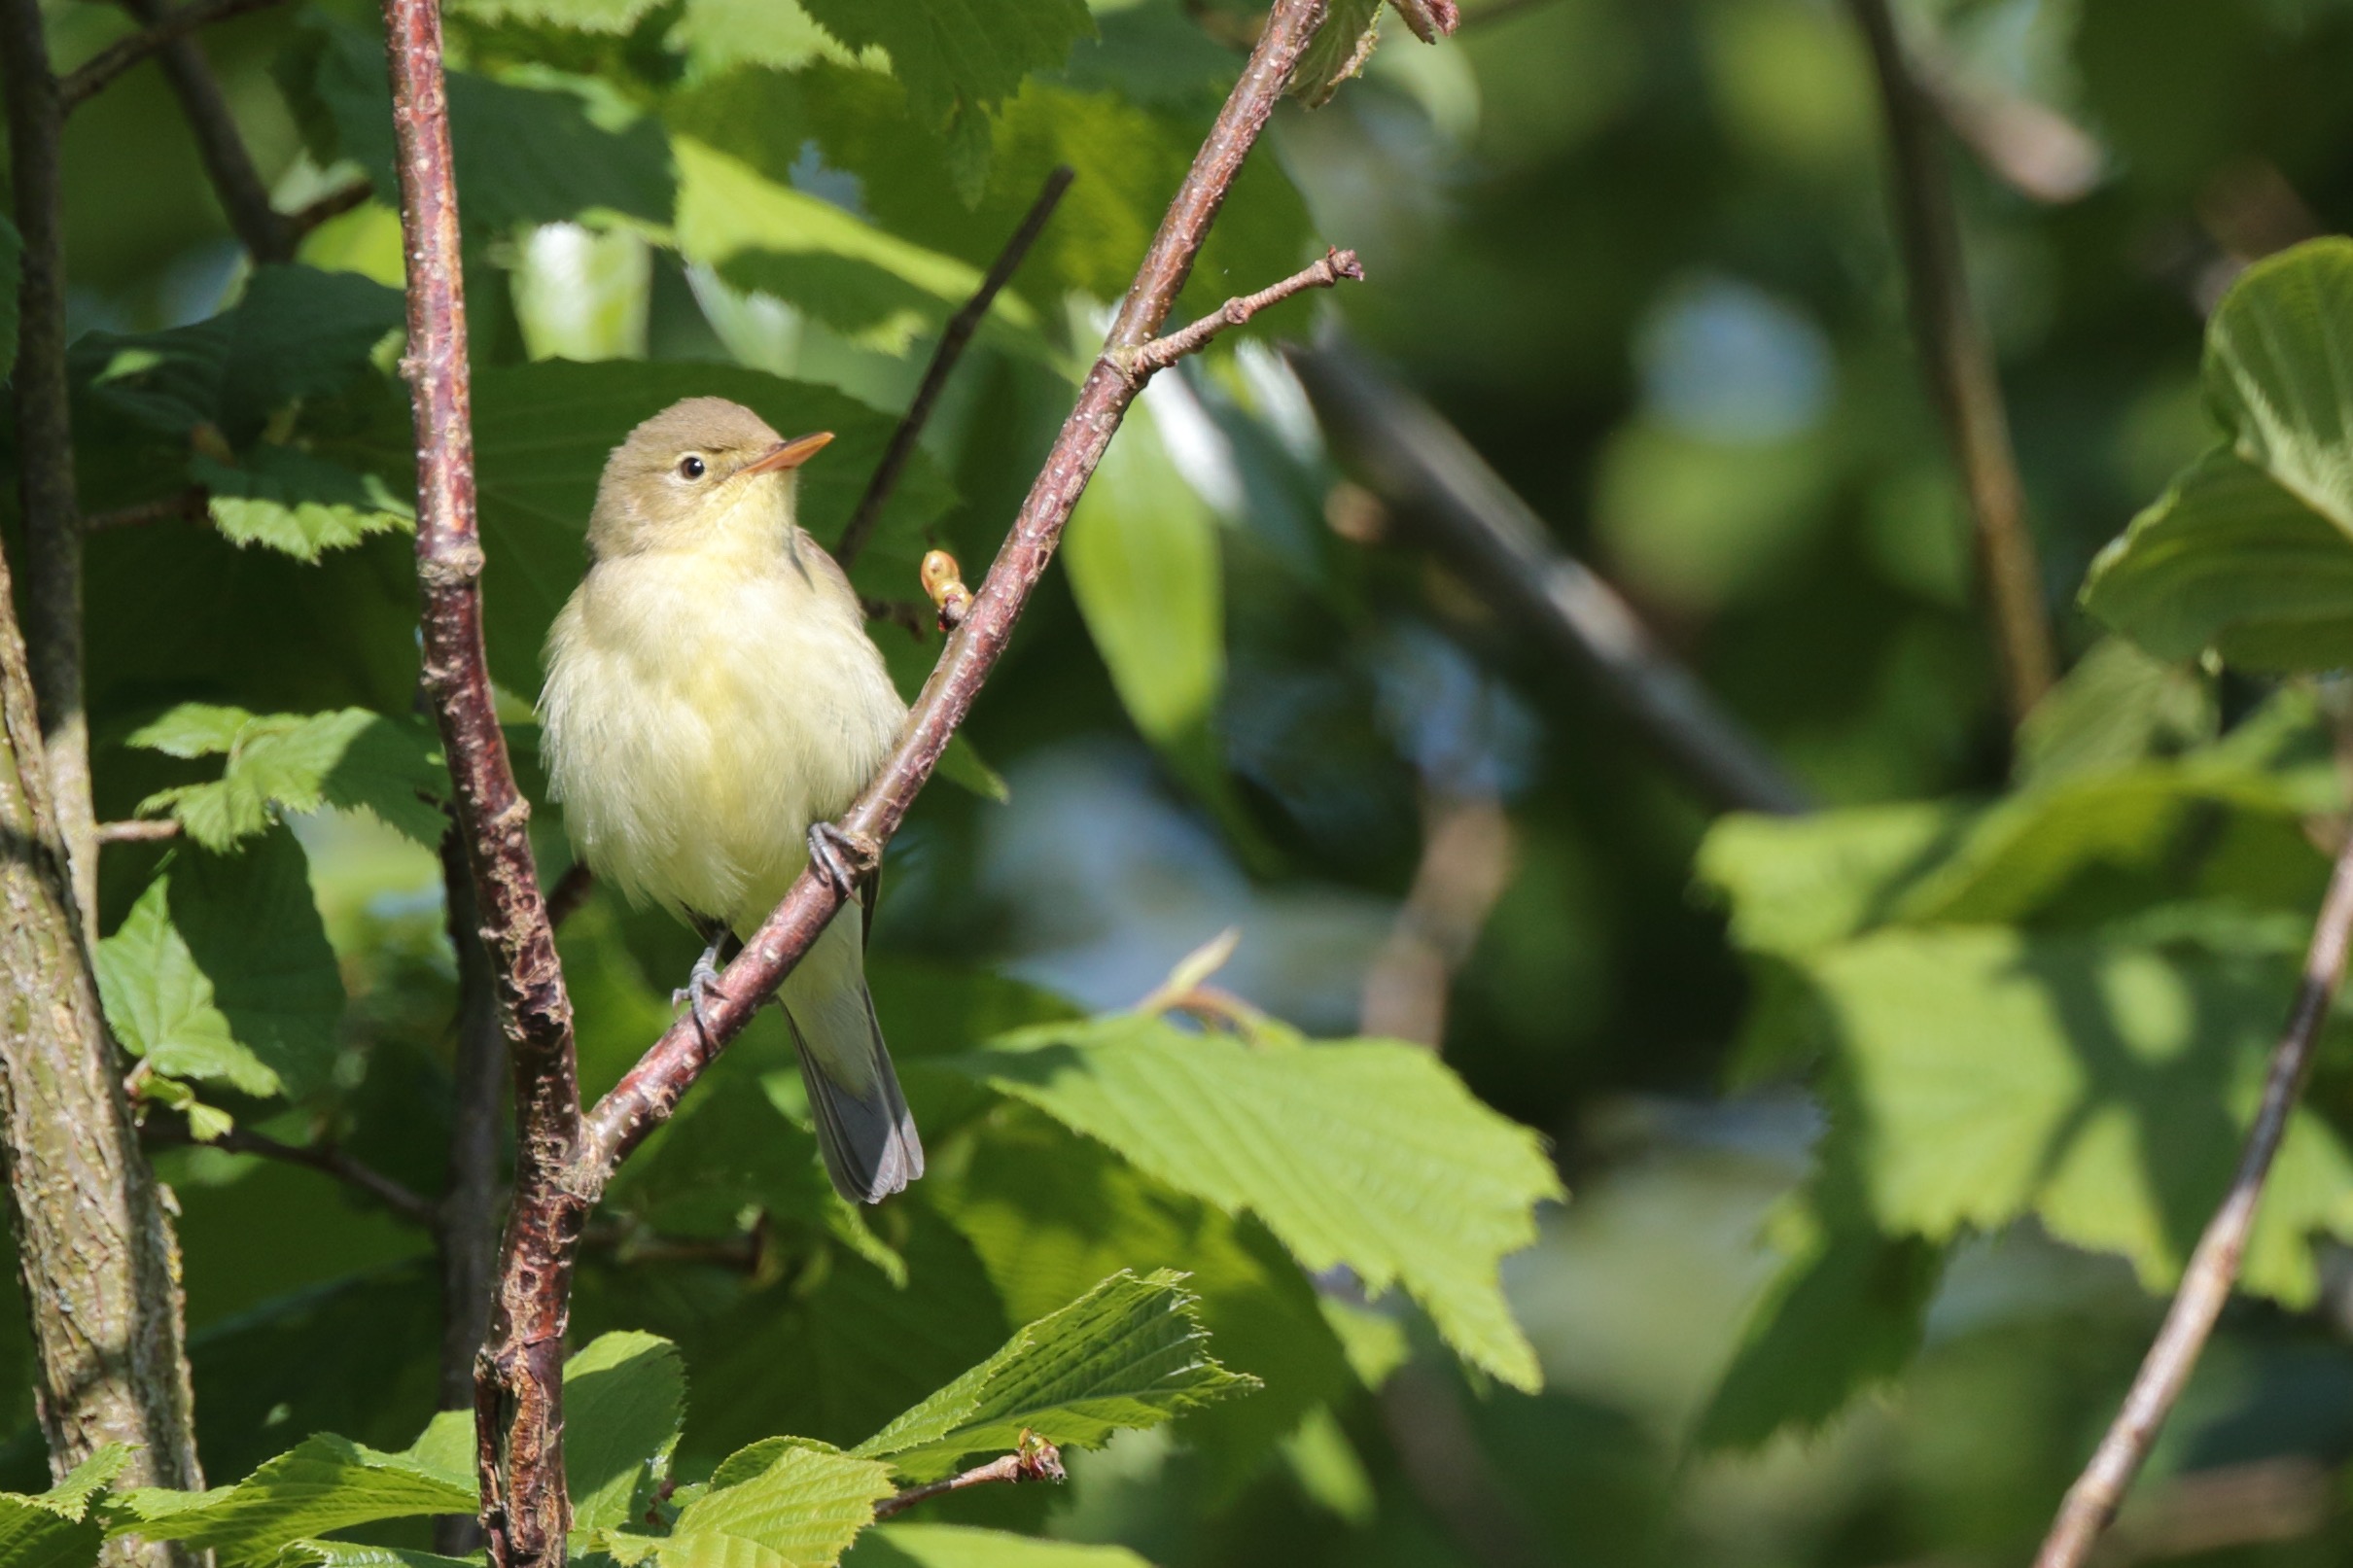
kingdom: Animalia
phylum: Chordata
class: Aves
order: Passeriformes
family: Acrocephalidae
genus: Hippolais
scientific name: Hippolais icterina
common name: Gulbug
